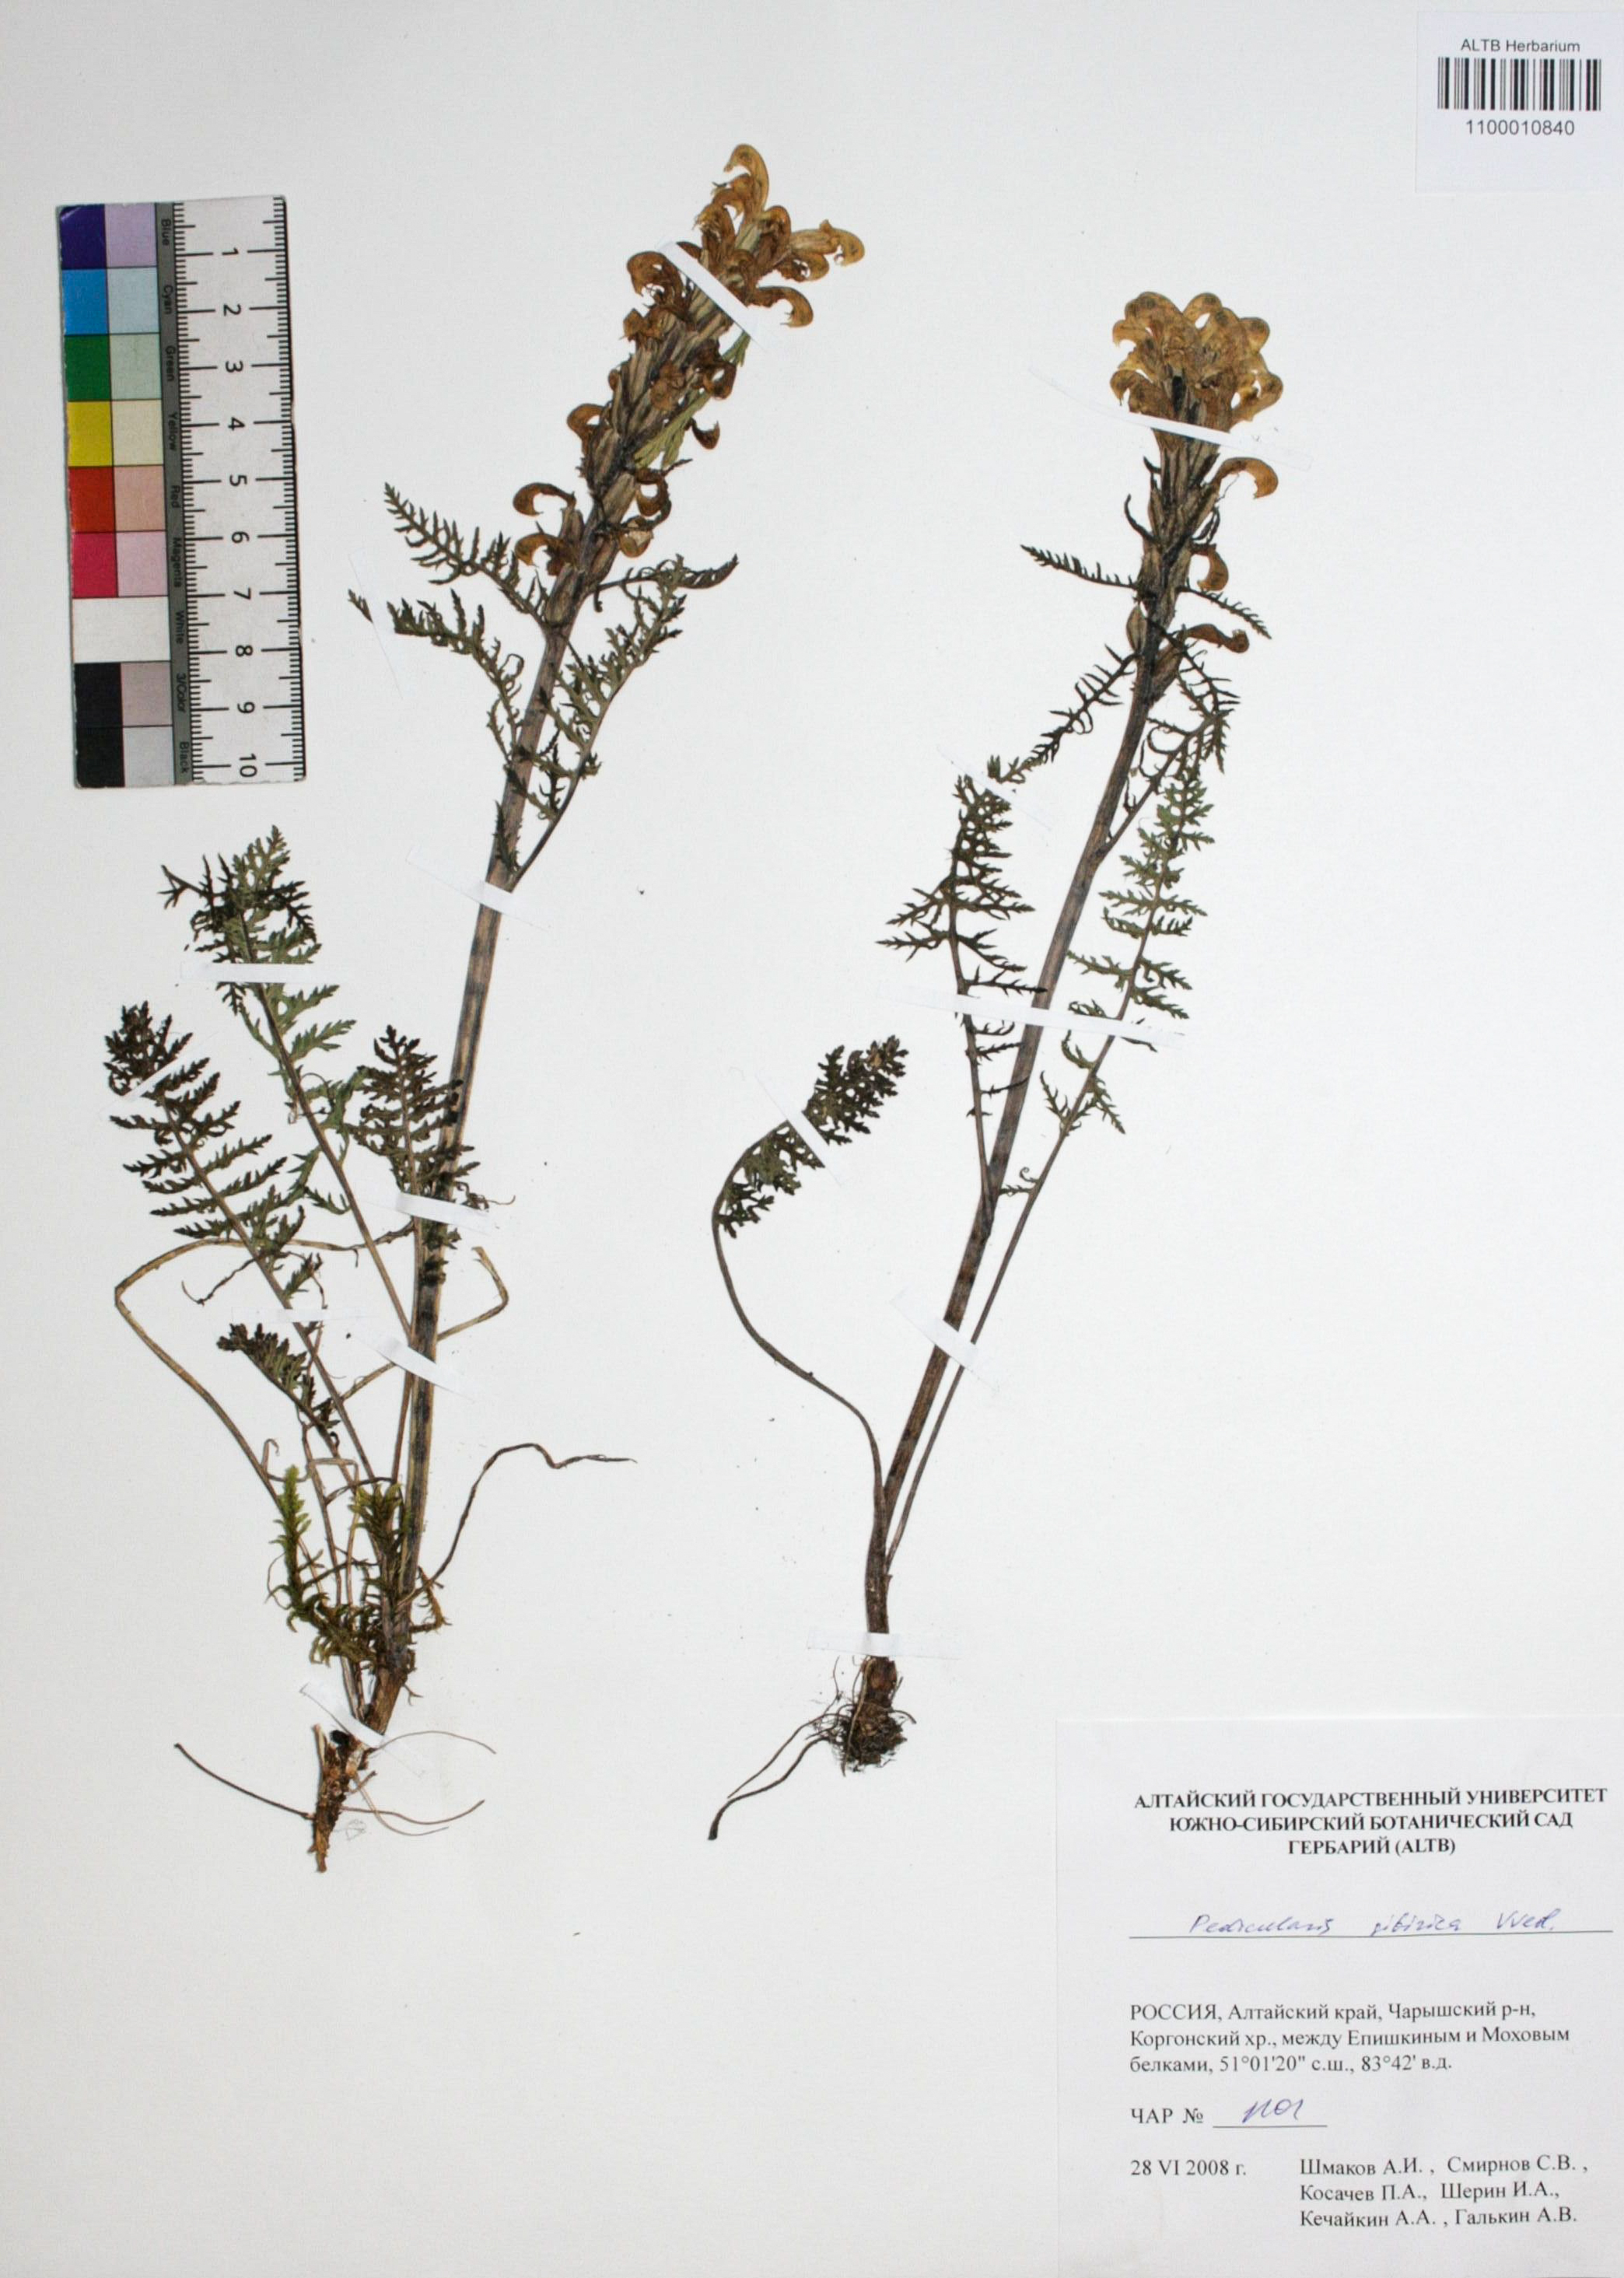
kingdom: Plantae
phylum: Tracheophyta
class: Magnoliopsida
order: Lamiales
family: Orobanchaceae
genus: Pedicularis
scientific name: Pedicularis sibirica
